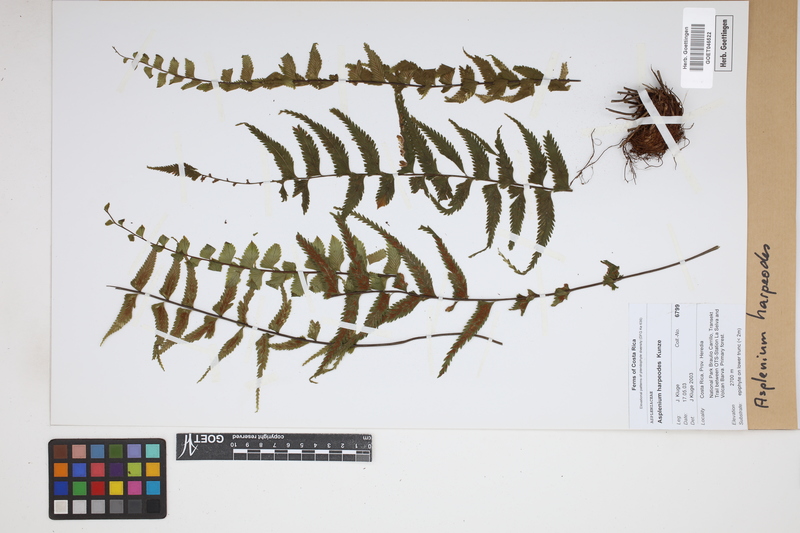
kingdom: Plantae
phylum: Tracheophyta
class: Polypodiopsida
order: Polypodiales
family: Aspleniaceae
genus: Asplenium
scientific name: Asplenium harpeodes
